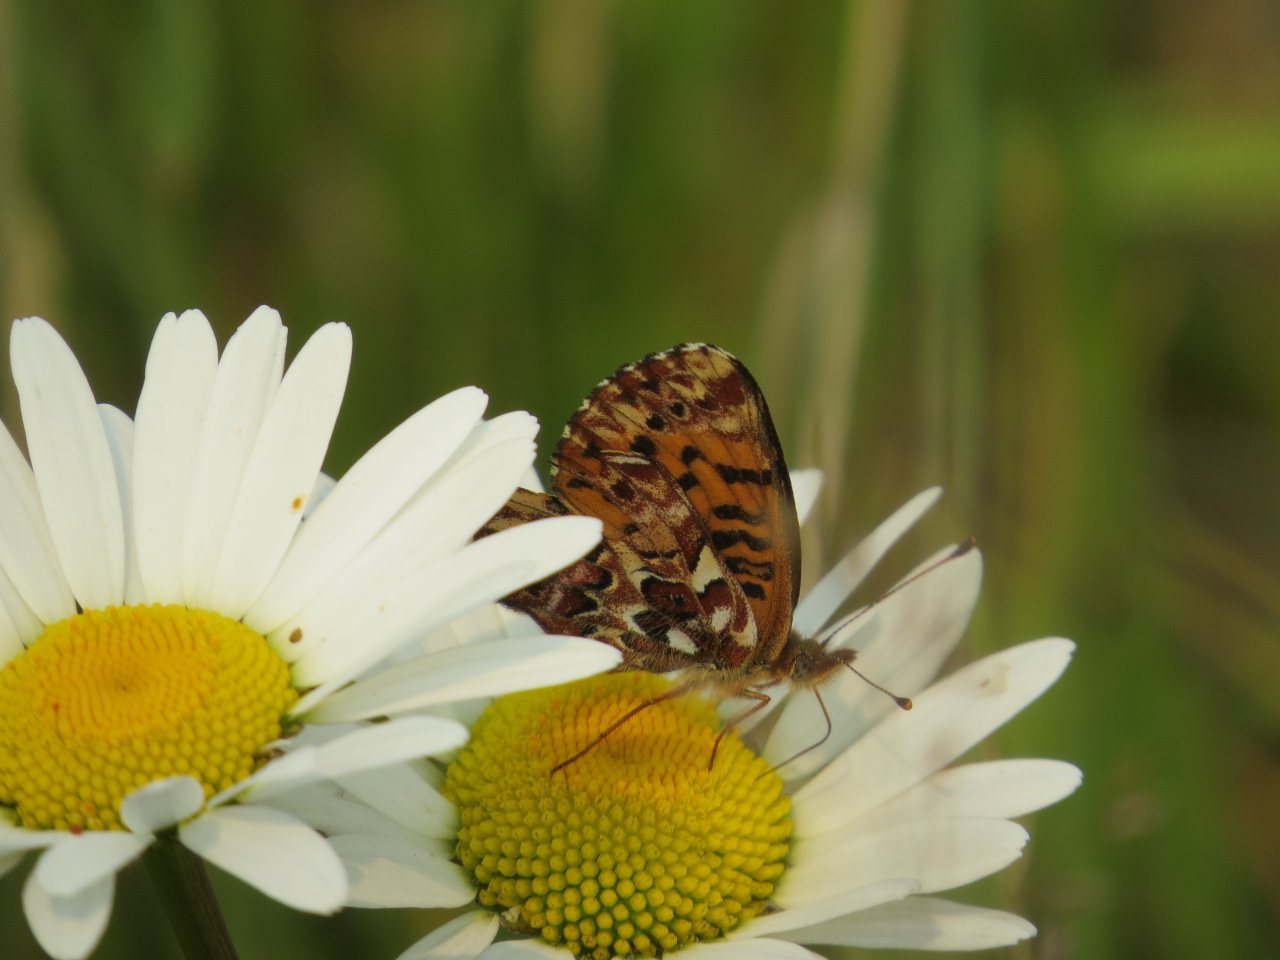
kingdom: Animalia
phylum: Arthropoda
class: Insecta
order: Lepidoptera
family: Nymphalidae
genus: Boloria
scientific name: Boloria chariclea
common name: Arctic Fritillary
